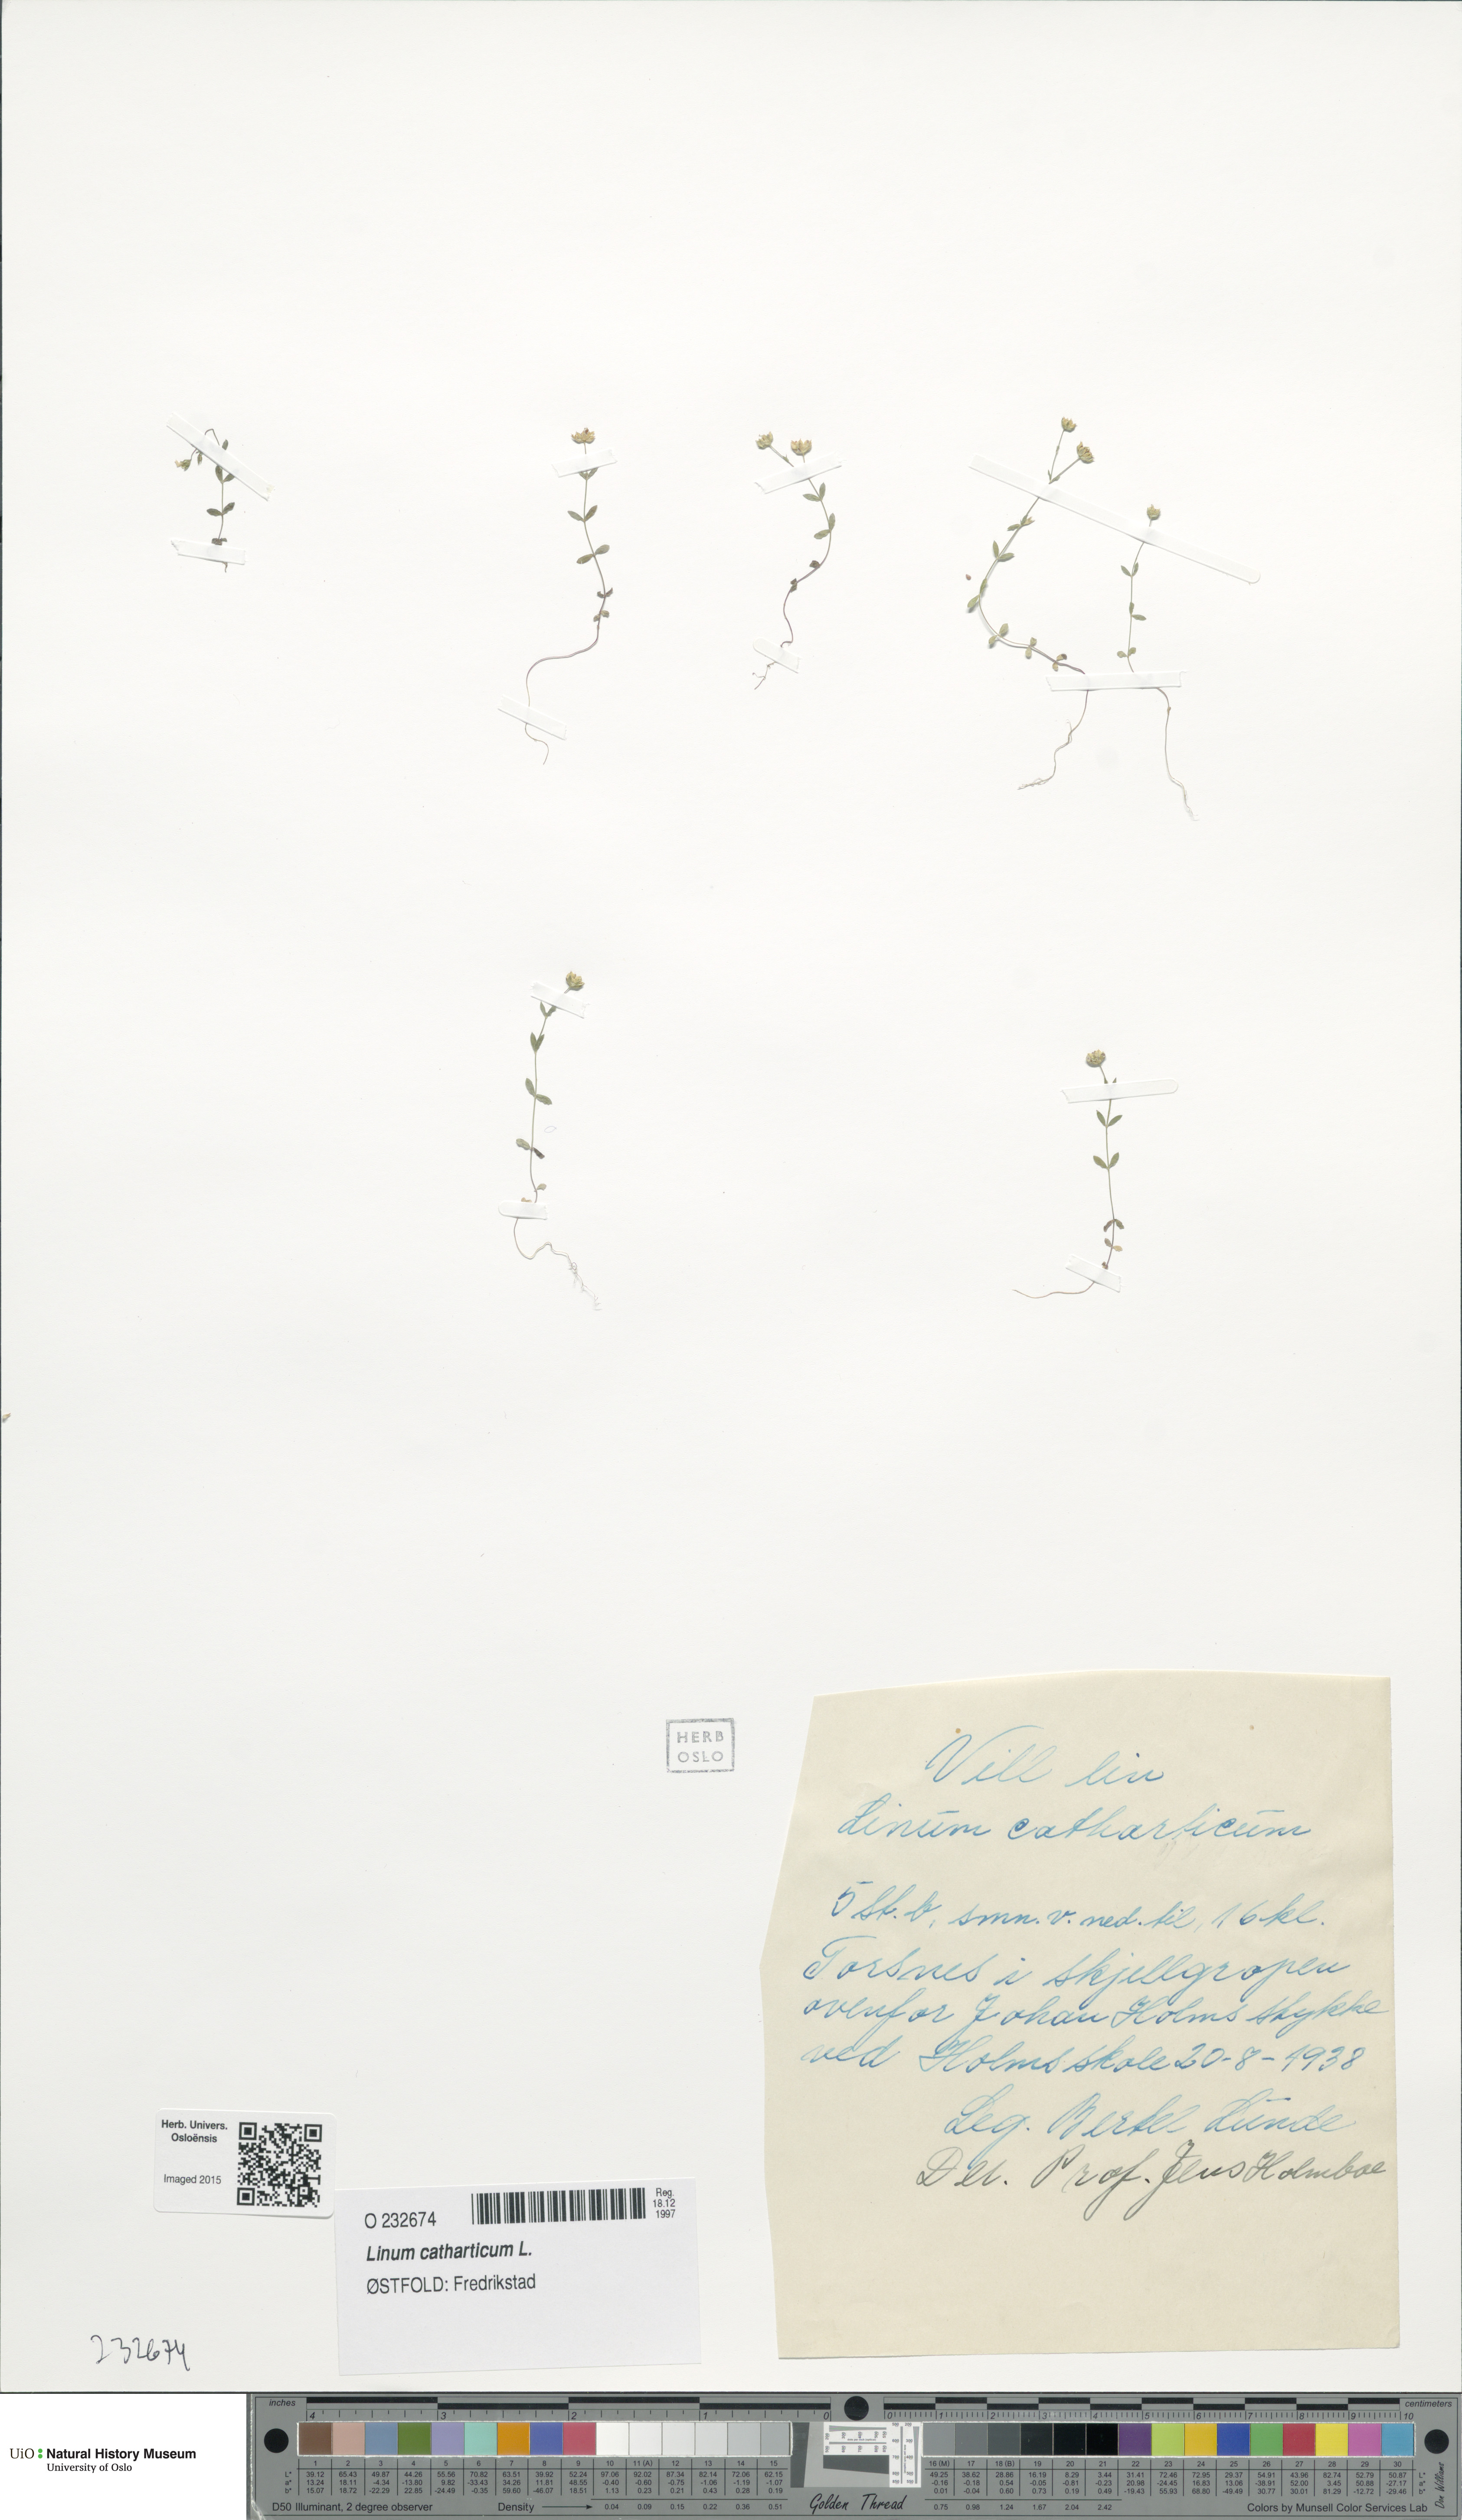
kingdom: Plantae
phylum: Tracheophyta
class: Magnoliopsida
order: Malpighiales
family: Linaceae
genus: Linum
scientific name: Linum catharticum
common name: Fairy flax
